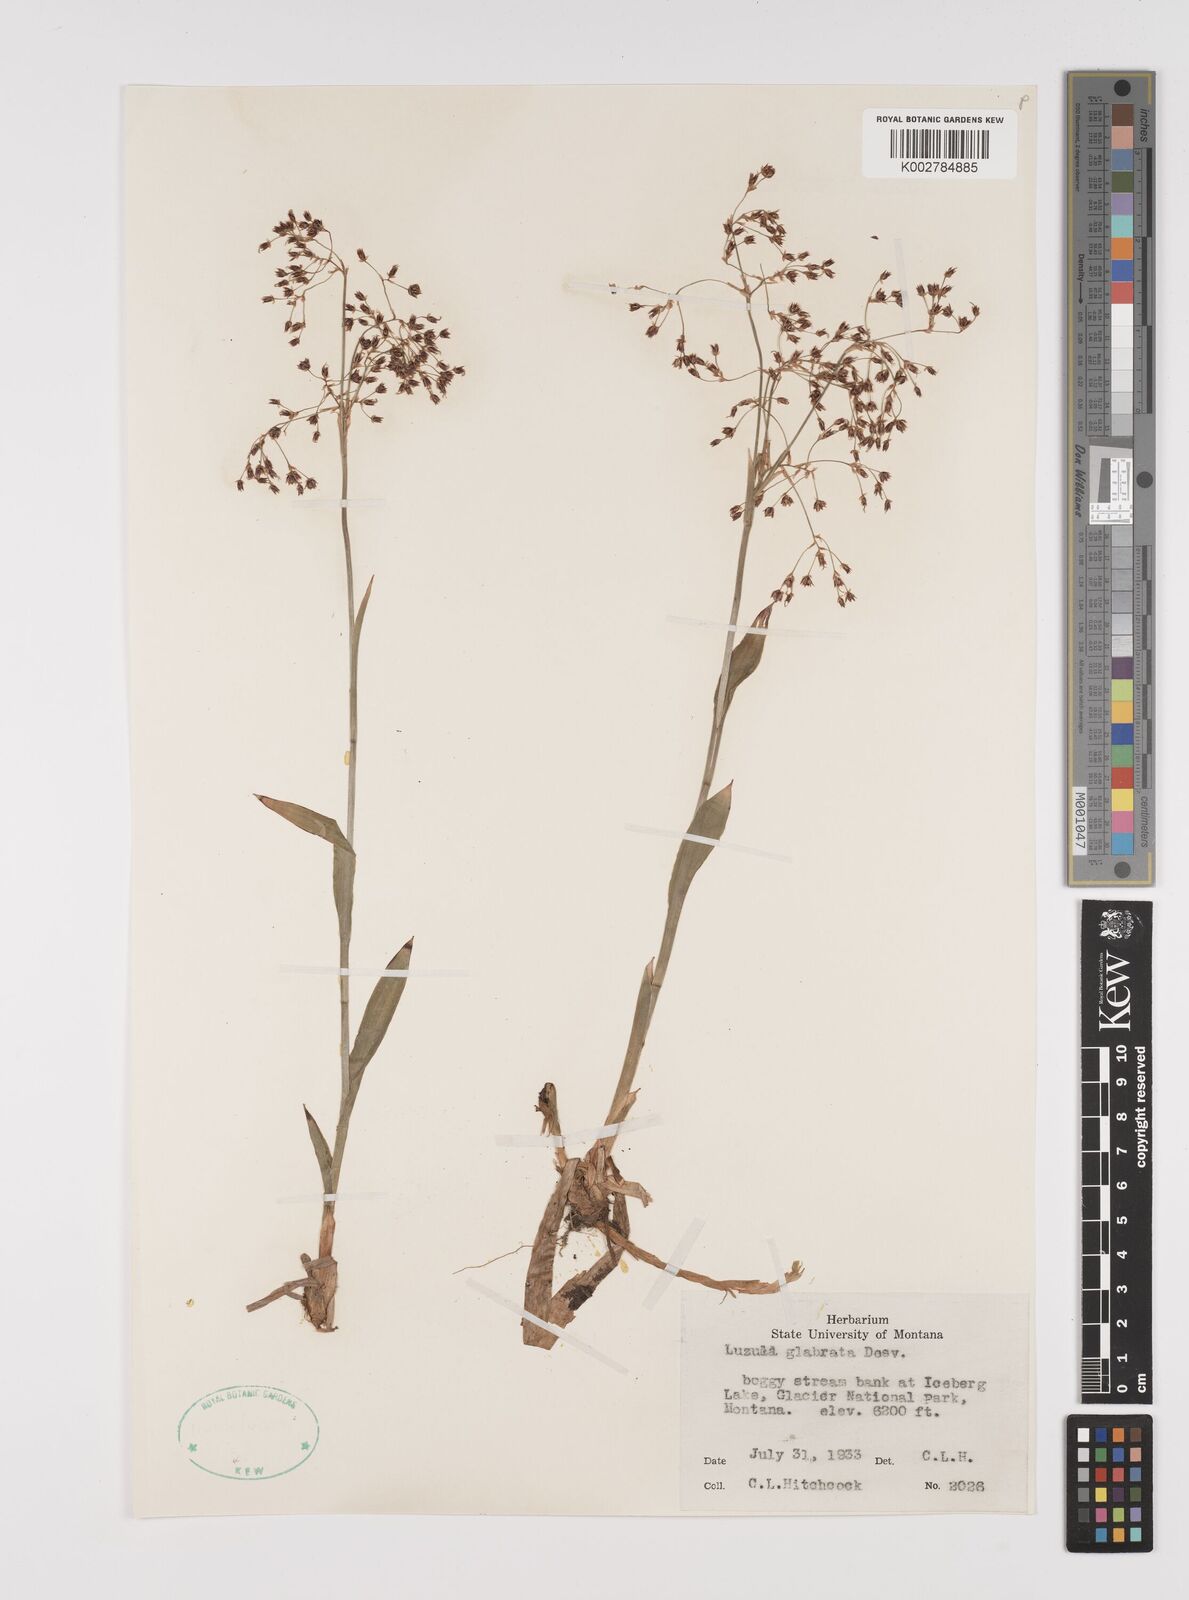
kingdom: Plantae
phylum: Tracheophyta
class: Liliopsida
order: Poales
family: Juncaceae
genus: Luzula
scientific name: Luzula glabrata
